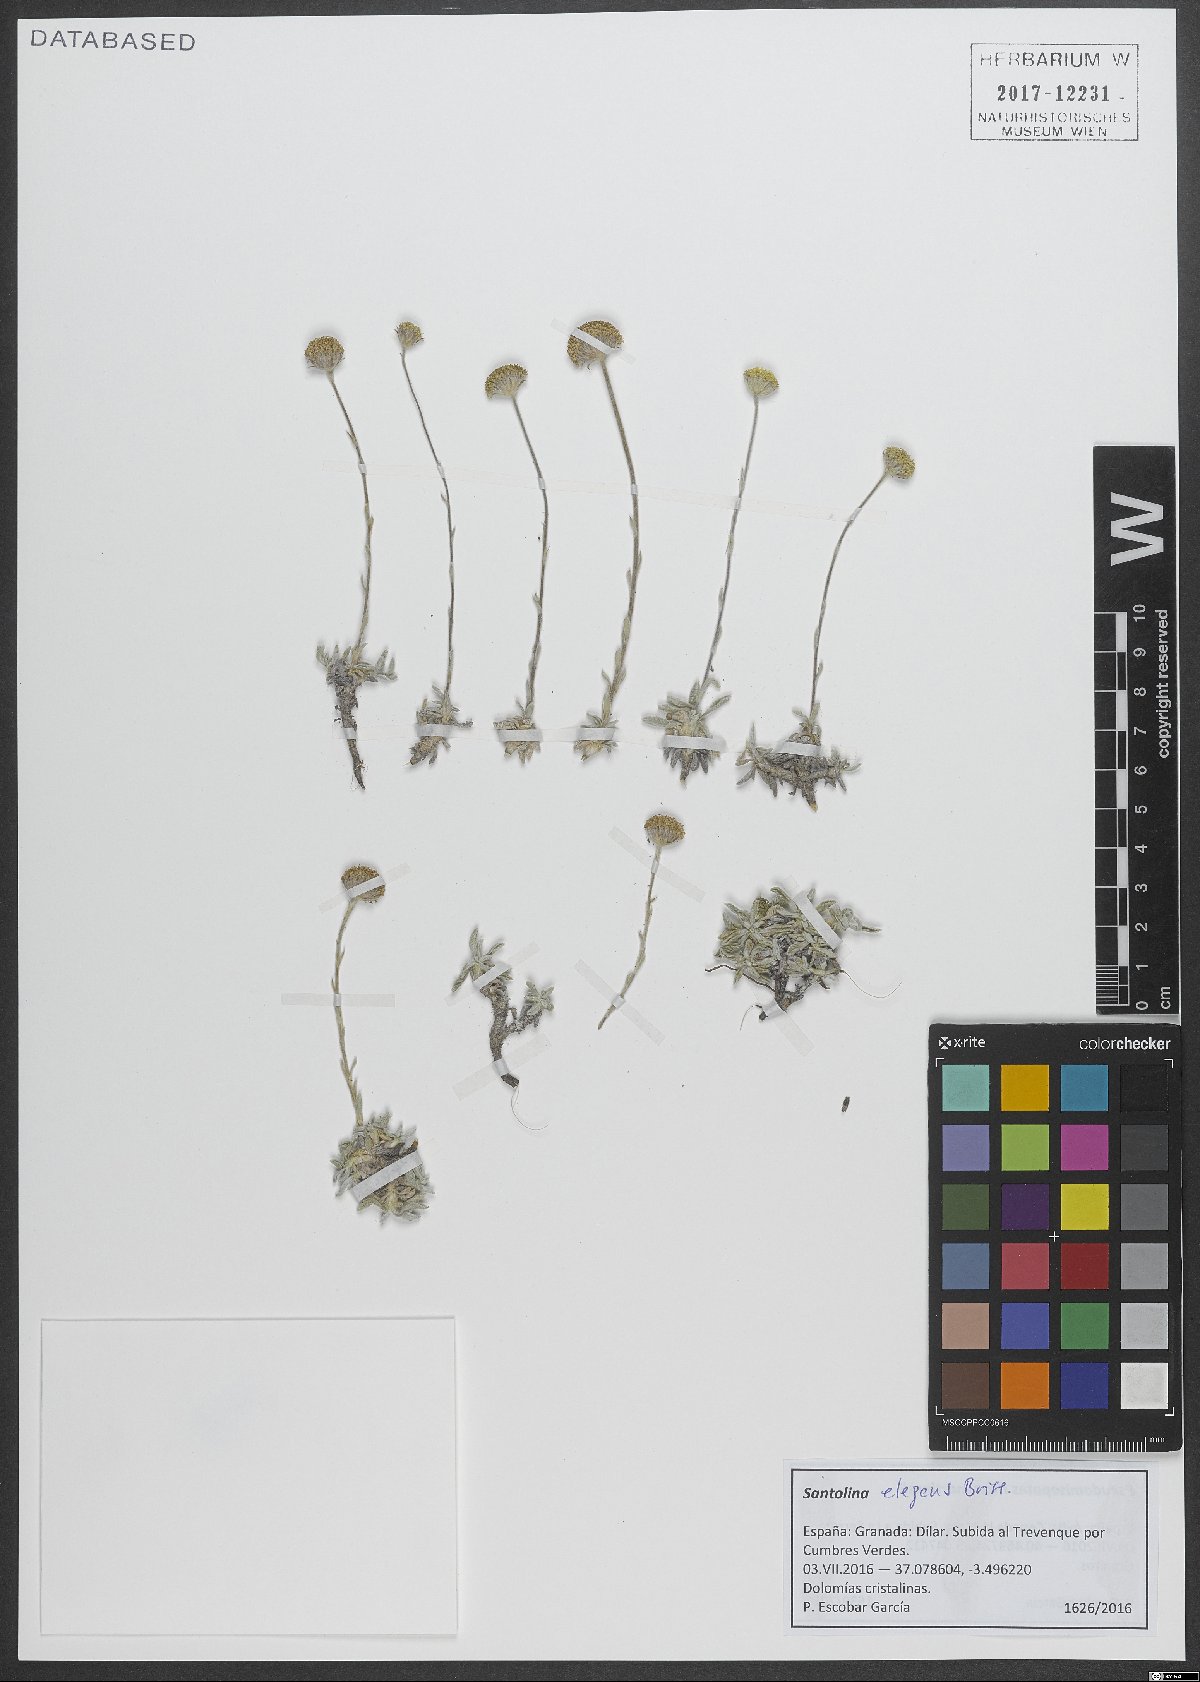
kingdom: Plantae
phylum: Tracheophyta
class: Magnoliopsida
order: Asterales
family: Asteraceae
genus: Santolina
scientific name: Santolina elegans
